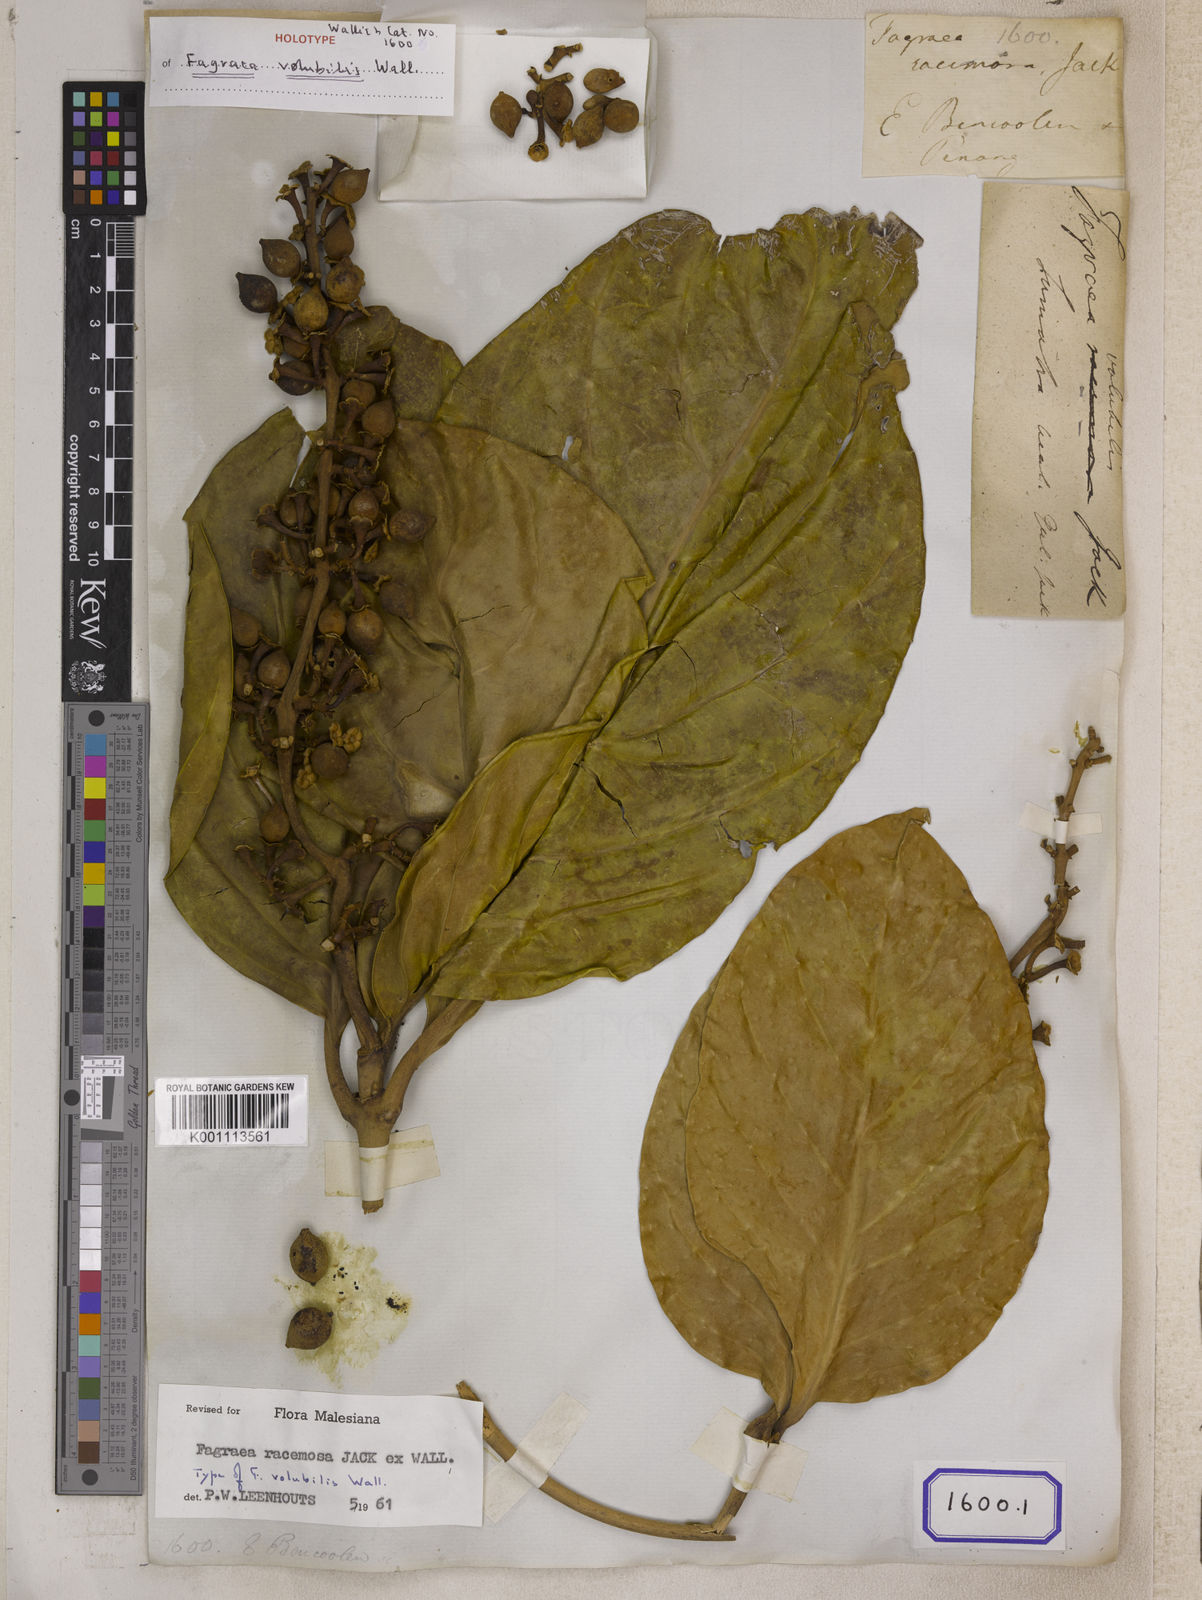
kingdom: Plantae
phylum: Tracheophyta
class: Magnoliopsida
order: Gentianales
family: Gentianaceae
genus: Utania
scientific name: Utania volubilis
